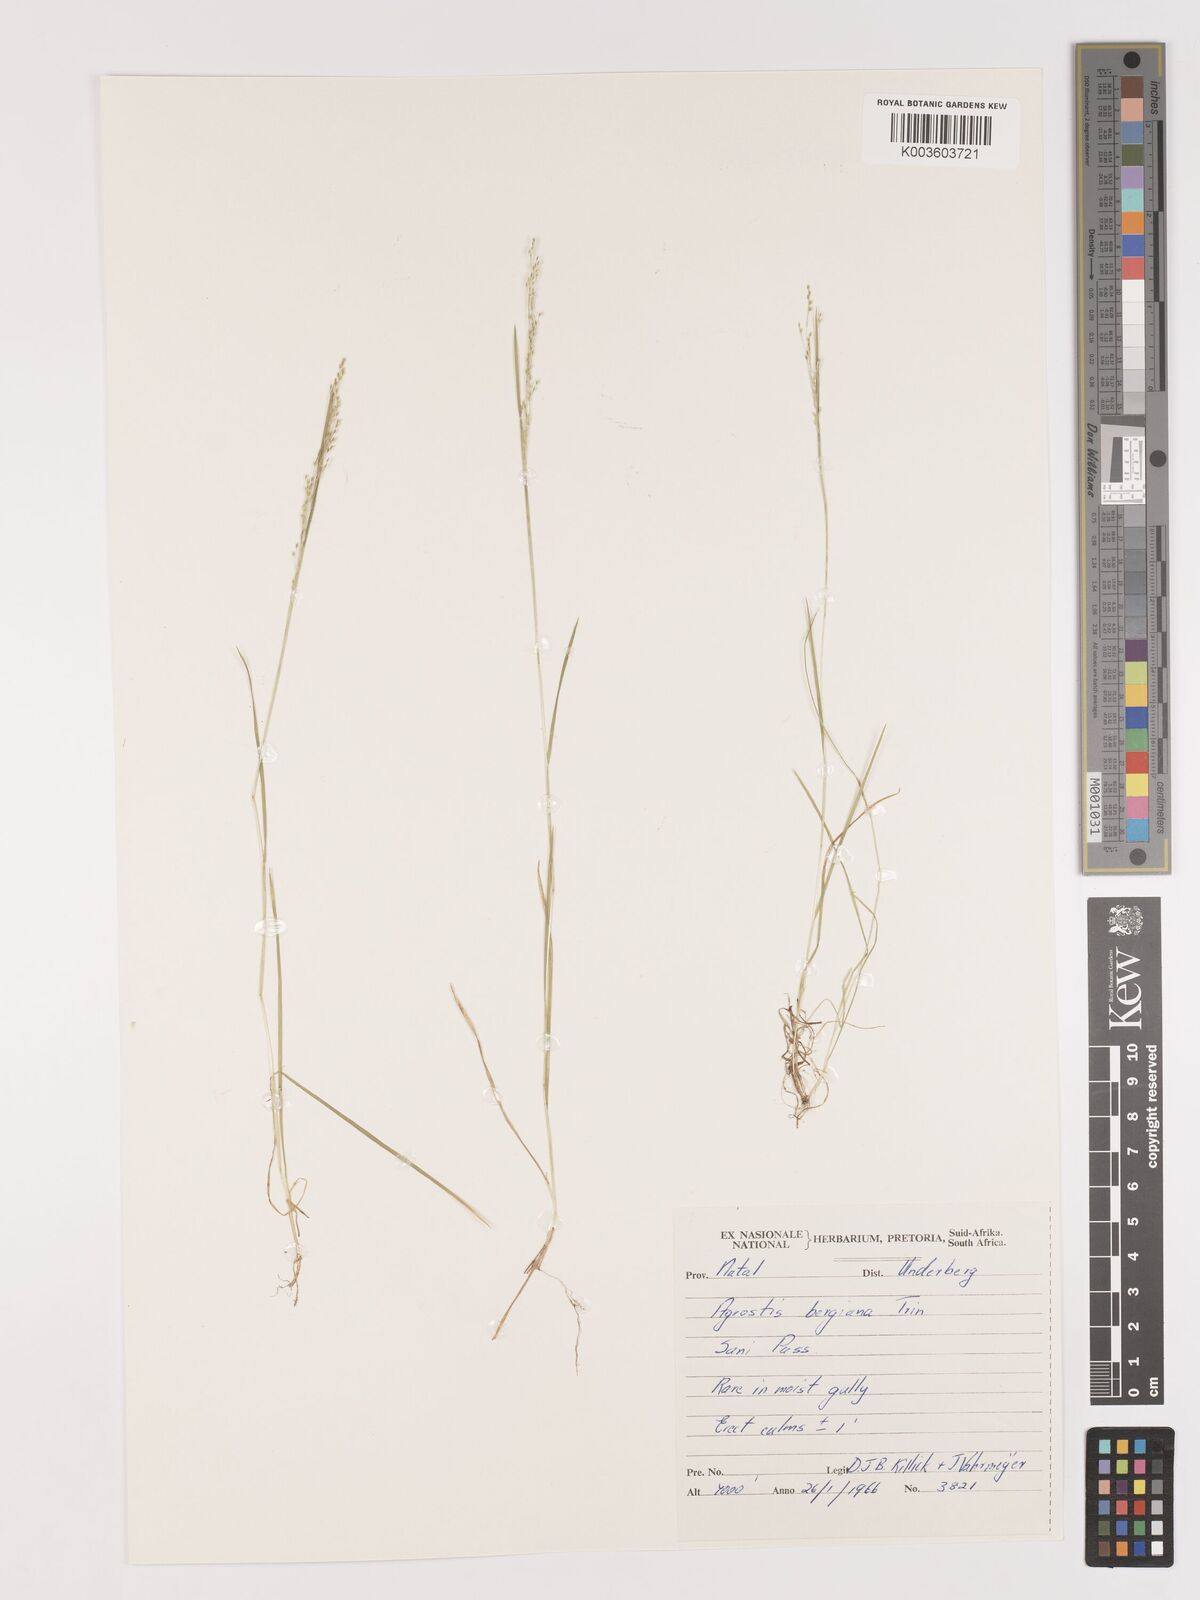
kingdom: Plantae
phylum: Tracheophyta
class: Liliopsida
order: Poales
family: Poaceae
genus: Agrostis
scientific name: Agrostis bergiana
